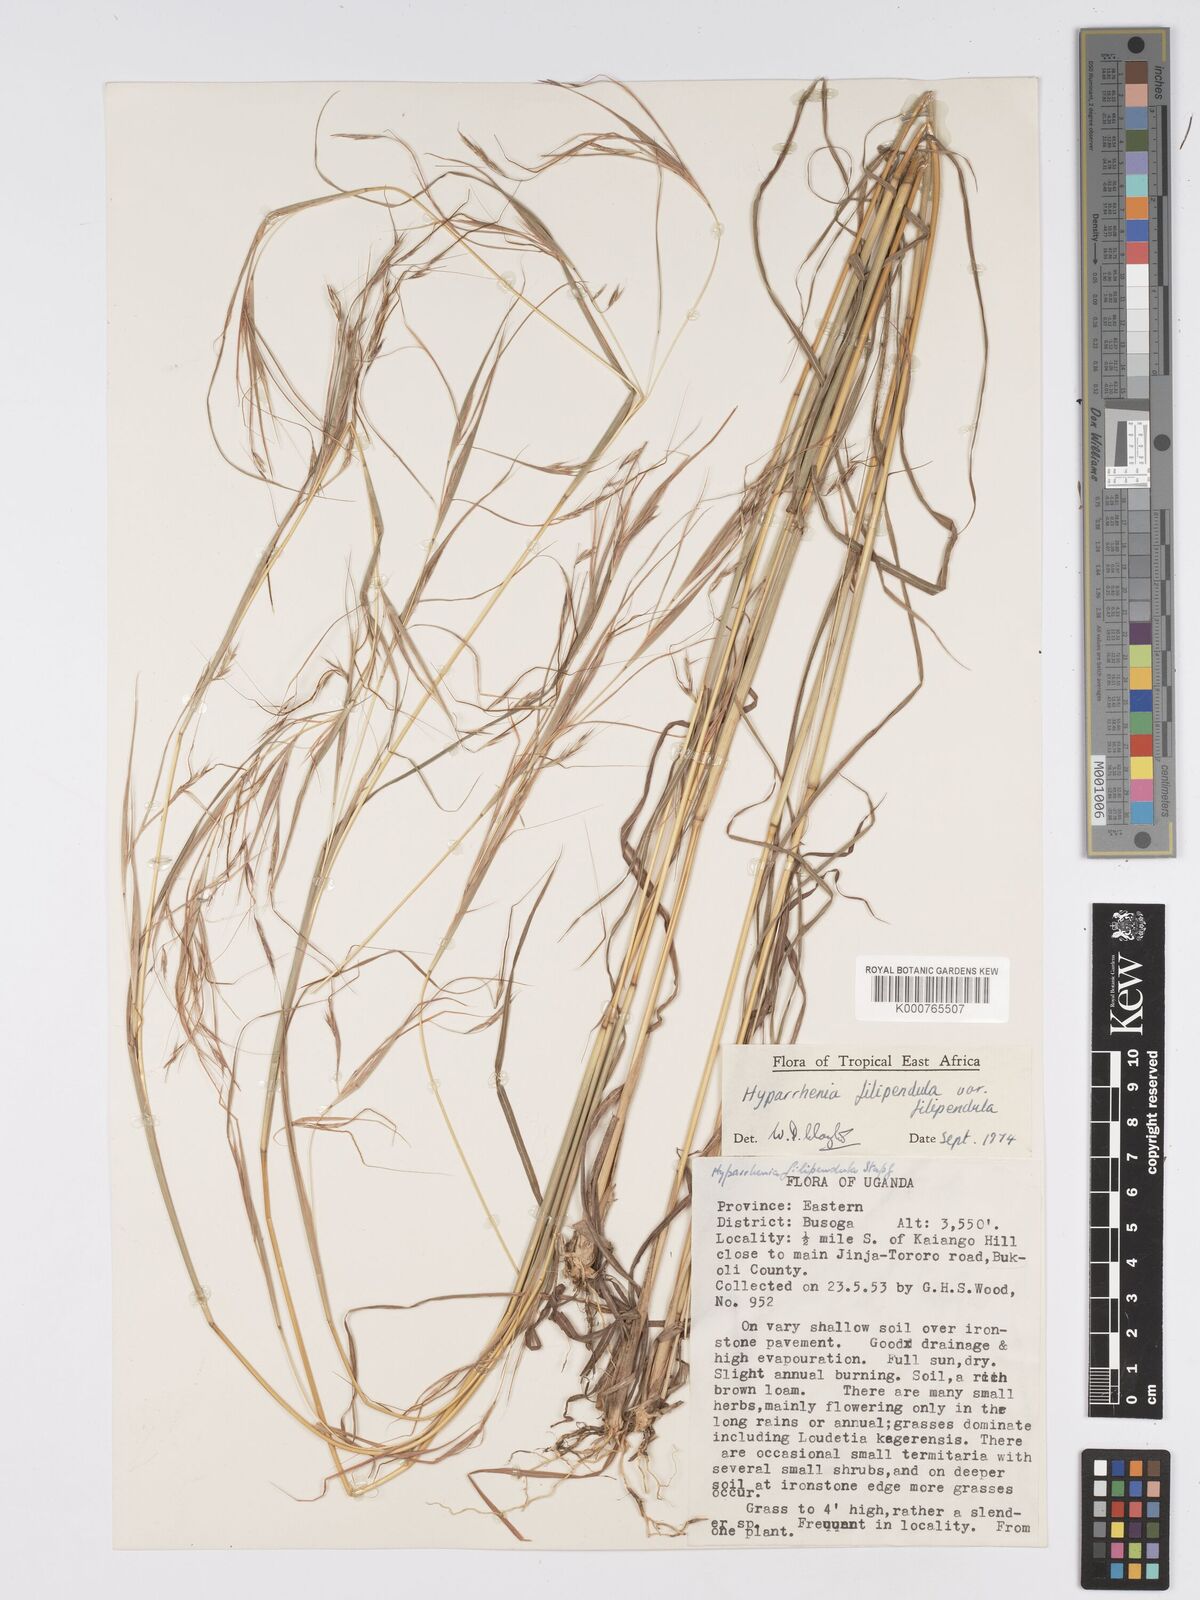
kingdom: Plantae
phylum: Tracheophyta
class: Liliopsida
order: Poales
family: Poaceae
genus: Hyparrhenia
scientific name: Hyparrhenia filipendula
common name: Tambookie grass
